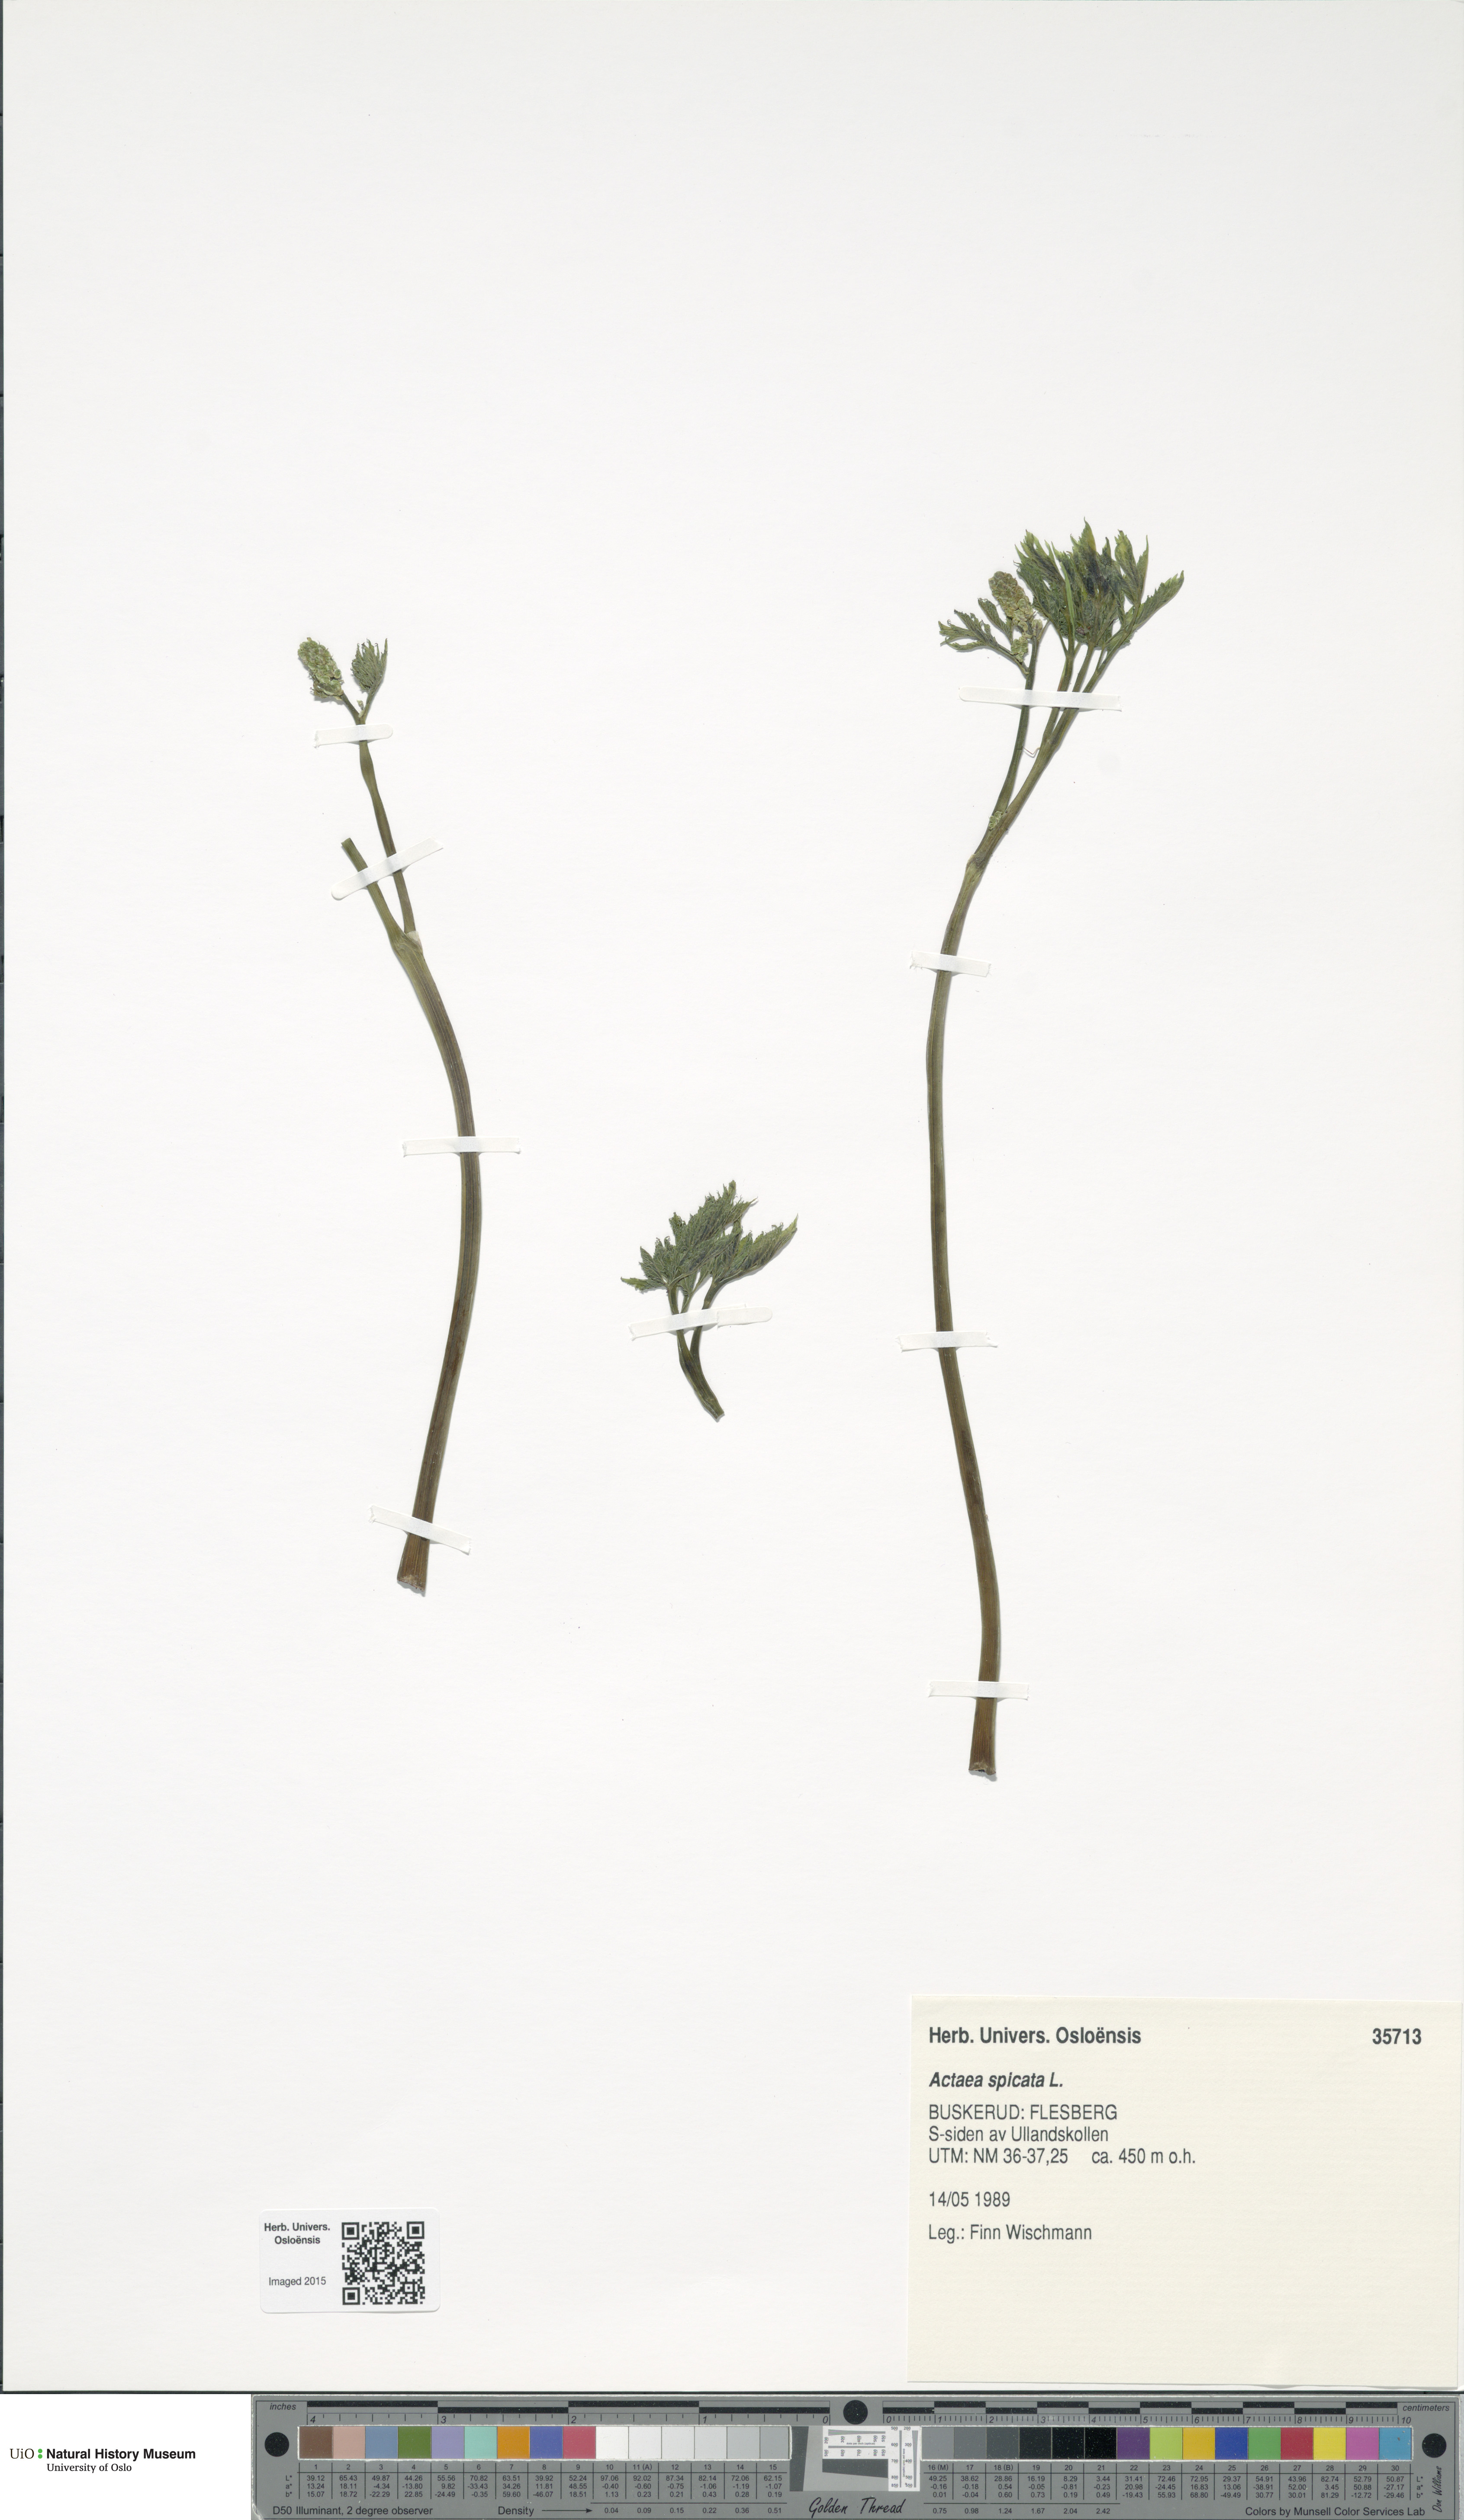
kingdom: Plantae
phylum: Tracheophyta
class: Magnoliopsida
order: Ranunculales
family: Ranunculaceae
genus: Actaea
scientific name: Actaea spicata
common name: Baneberry
